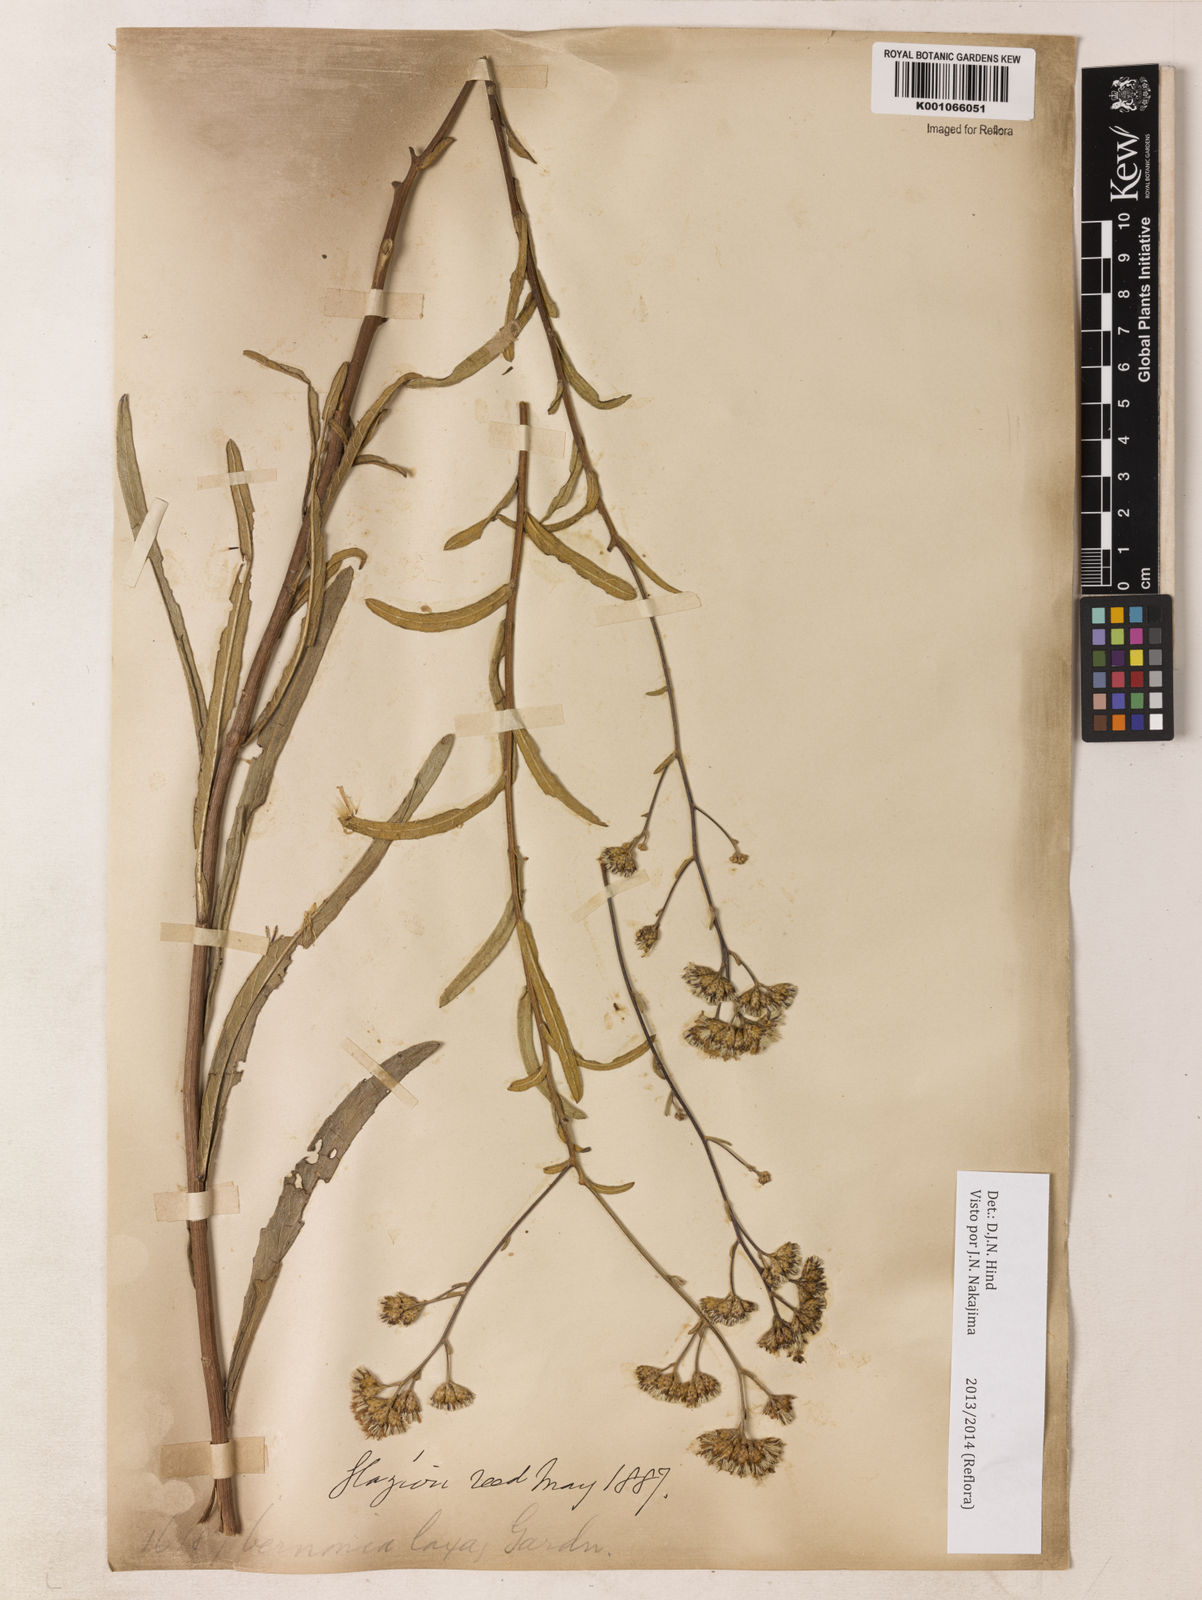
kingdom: Plantae
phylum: Tracheophyta
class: Magnoliopsida
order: Asterales
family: Asteraceae
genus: Vernonanthura
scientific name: Vernonanthura laxa
